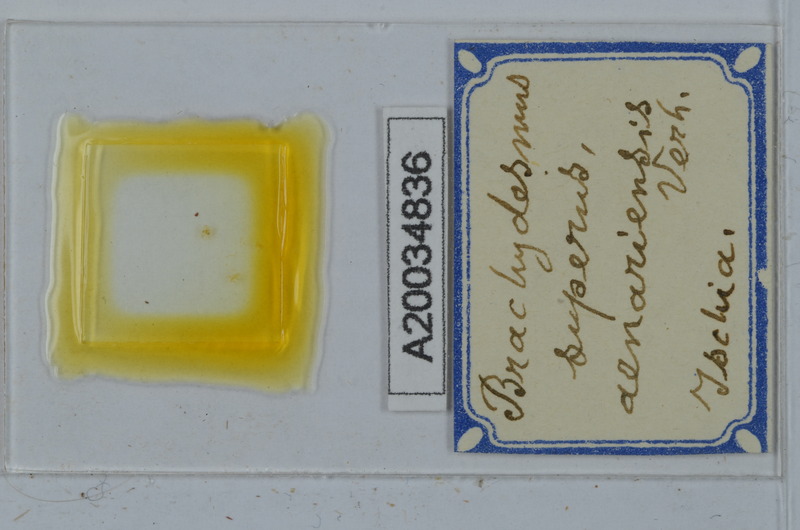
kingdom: Animalia
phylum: Arthropoda
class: Diplopoda
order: Polydesmida
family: Polydesmidae
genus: Brachydesmus
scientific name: Brachydesmus superus
